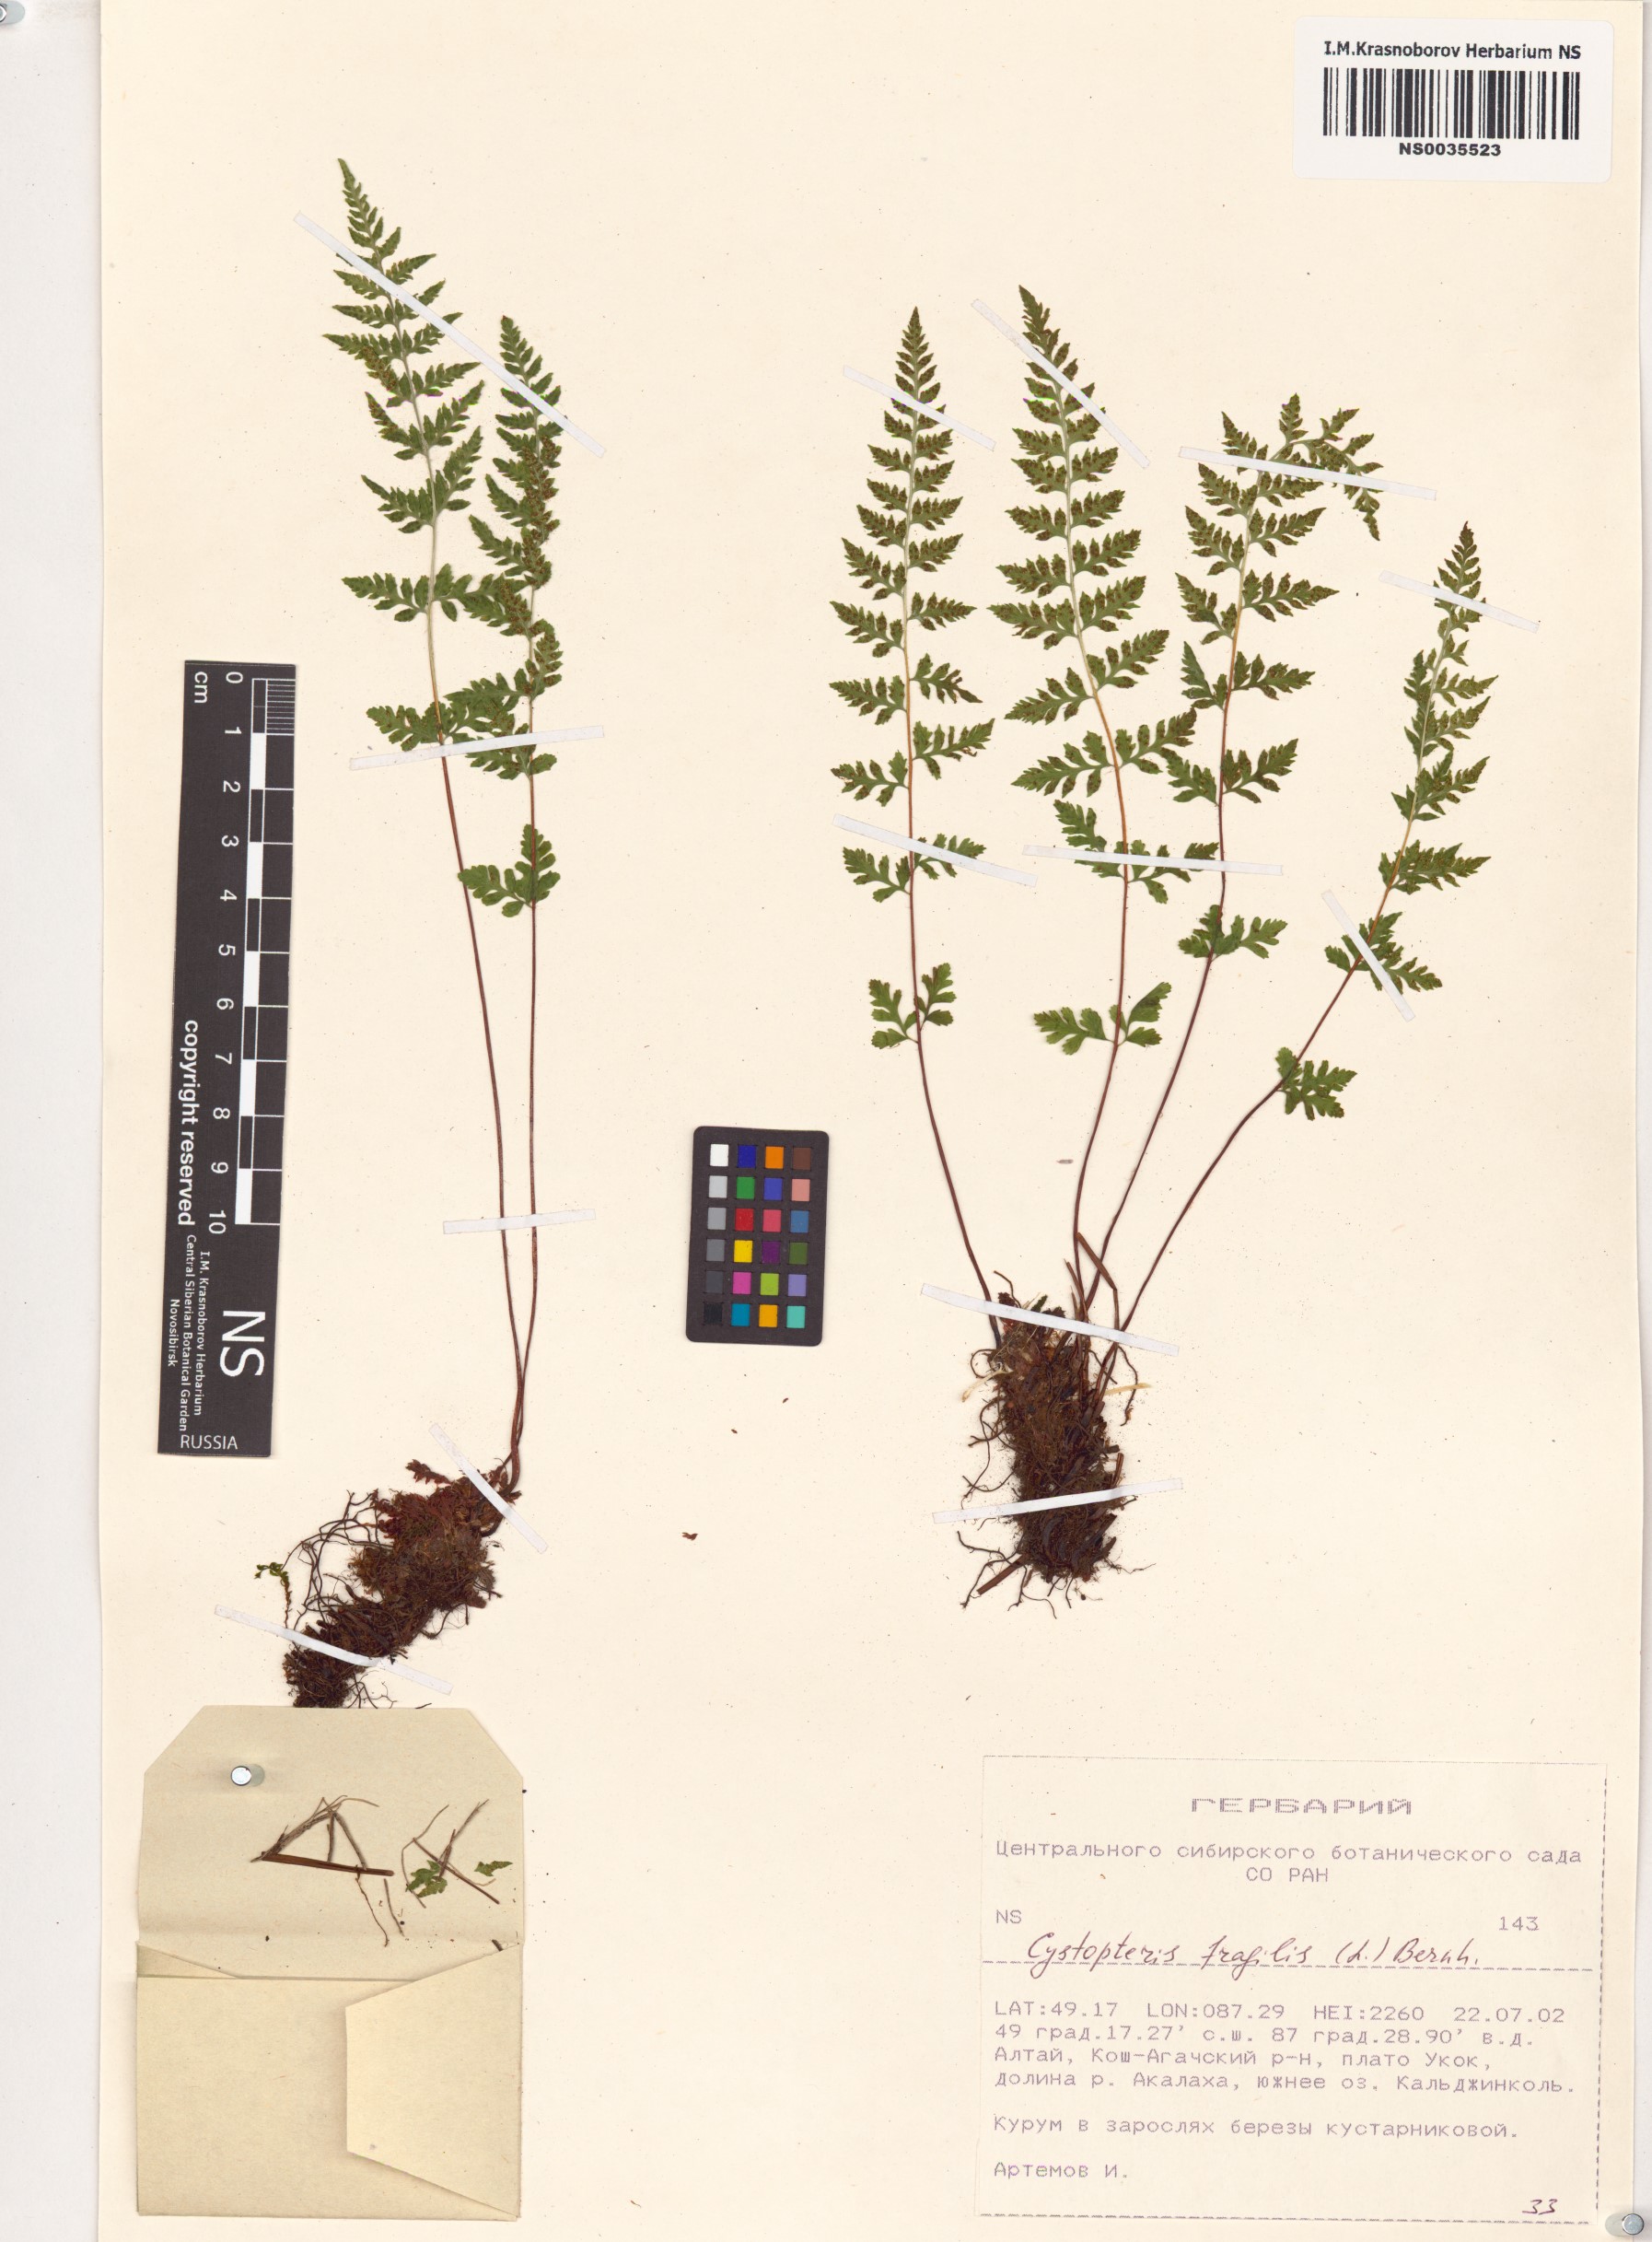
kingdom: Plantae
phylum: Tracheophyta
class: Polypodiopsida
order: Polypodiales
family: Cystopteridaceae
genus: Cystopteris
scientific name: Cystopteris fragilis
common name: Brittle bladder fern
